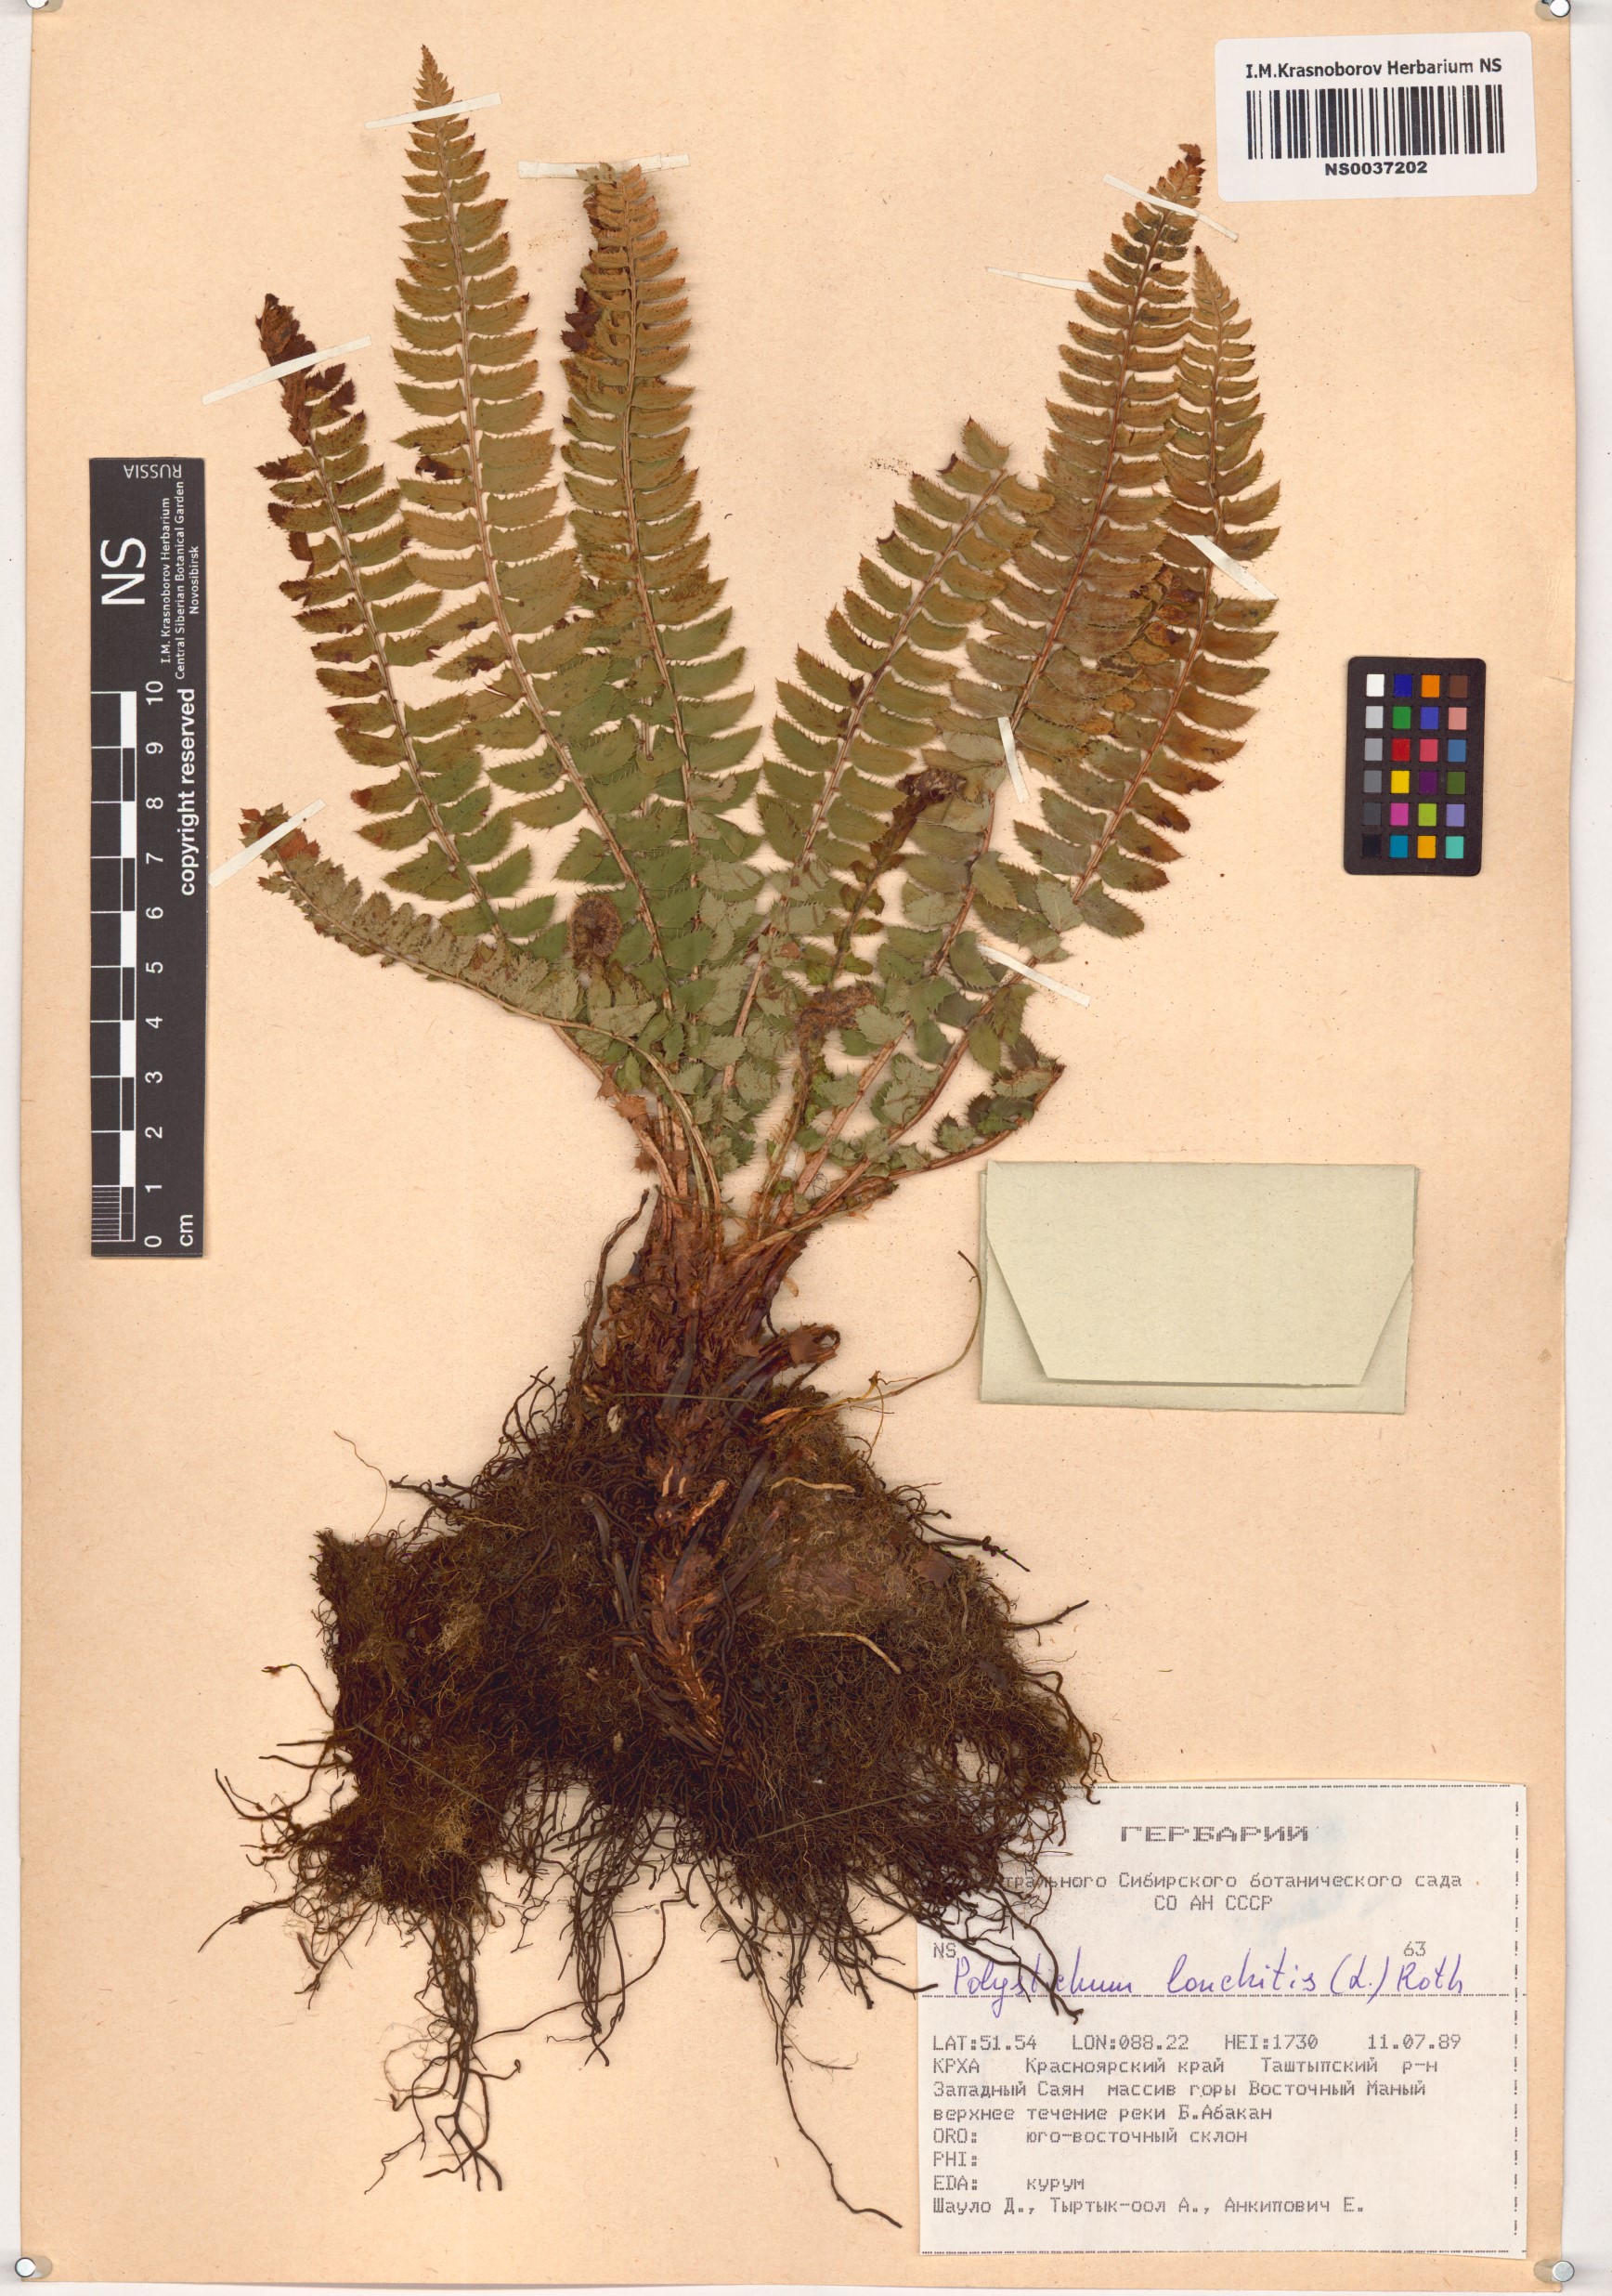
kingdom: Plantae
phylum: Tracheophyta
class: Polypodiopsida
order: Polypodiales
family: Dryopteridaceae
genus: Polystichum
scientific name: Polystichum lonchitis
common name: Holly fern
